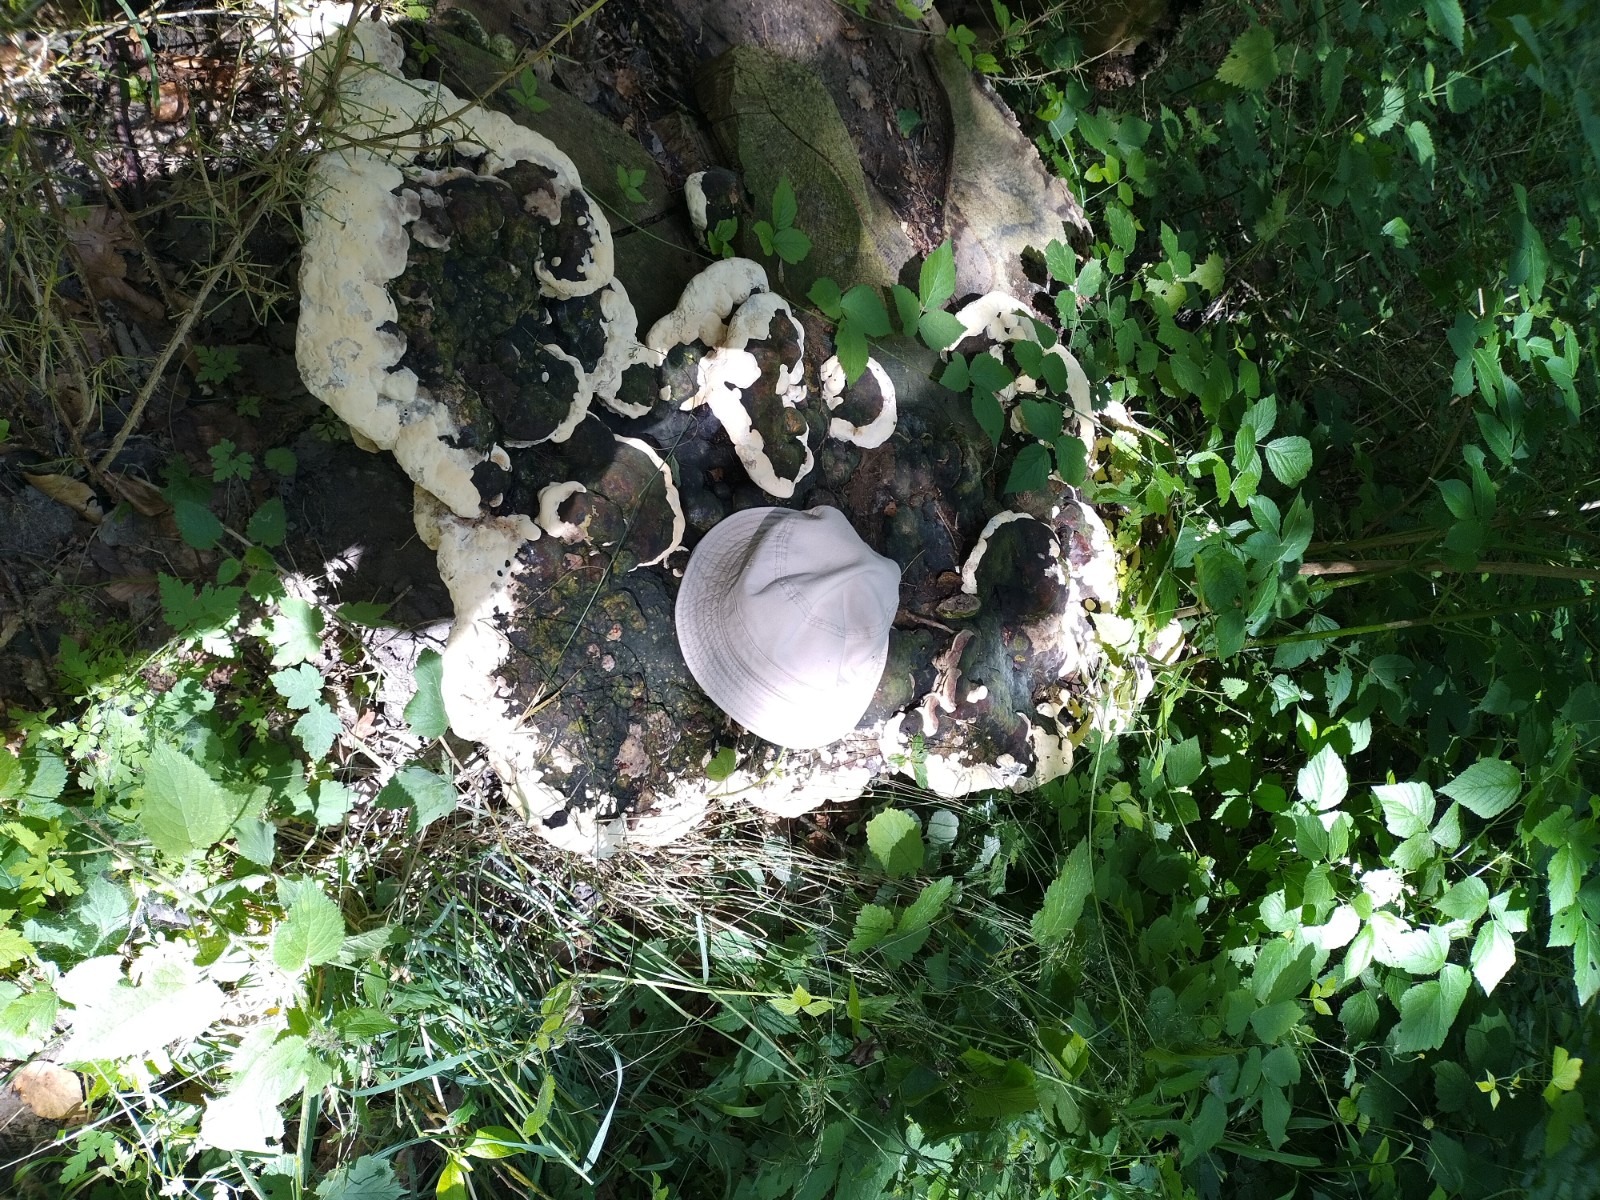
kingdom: Fungi
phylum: Basidiomycota
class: Agaricomycetes
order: Polyporales
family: Polyporaceae
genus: Vanderbylia
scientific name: Vanderbylia fraxinea
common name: stor kanelporesvamp
